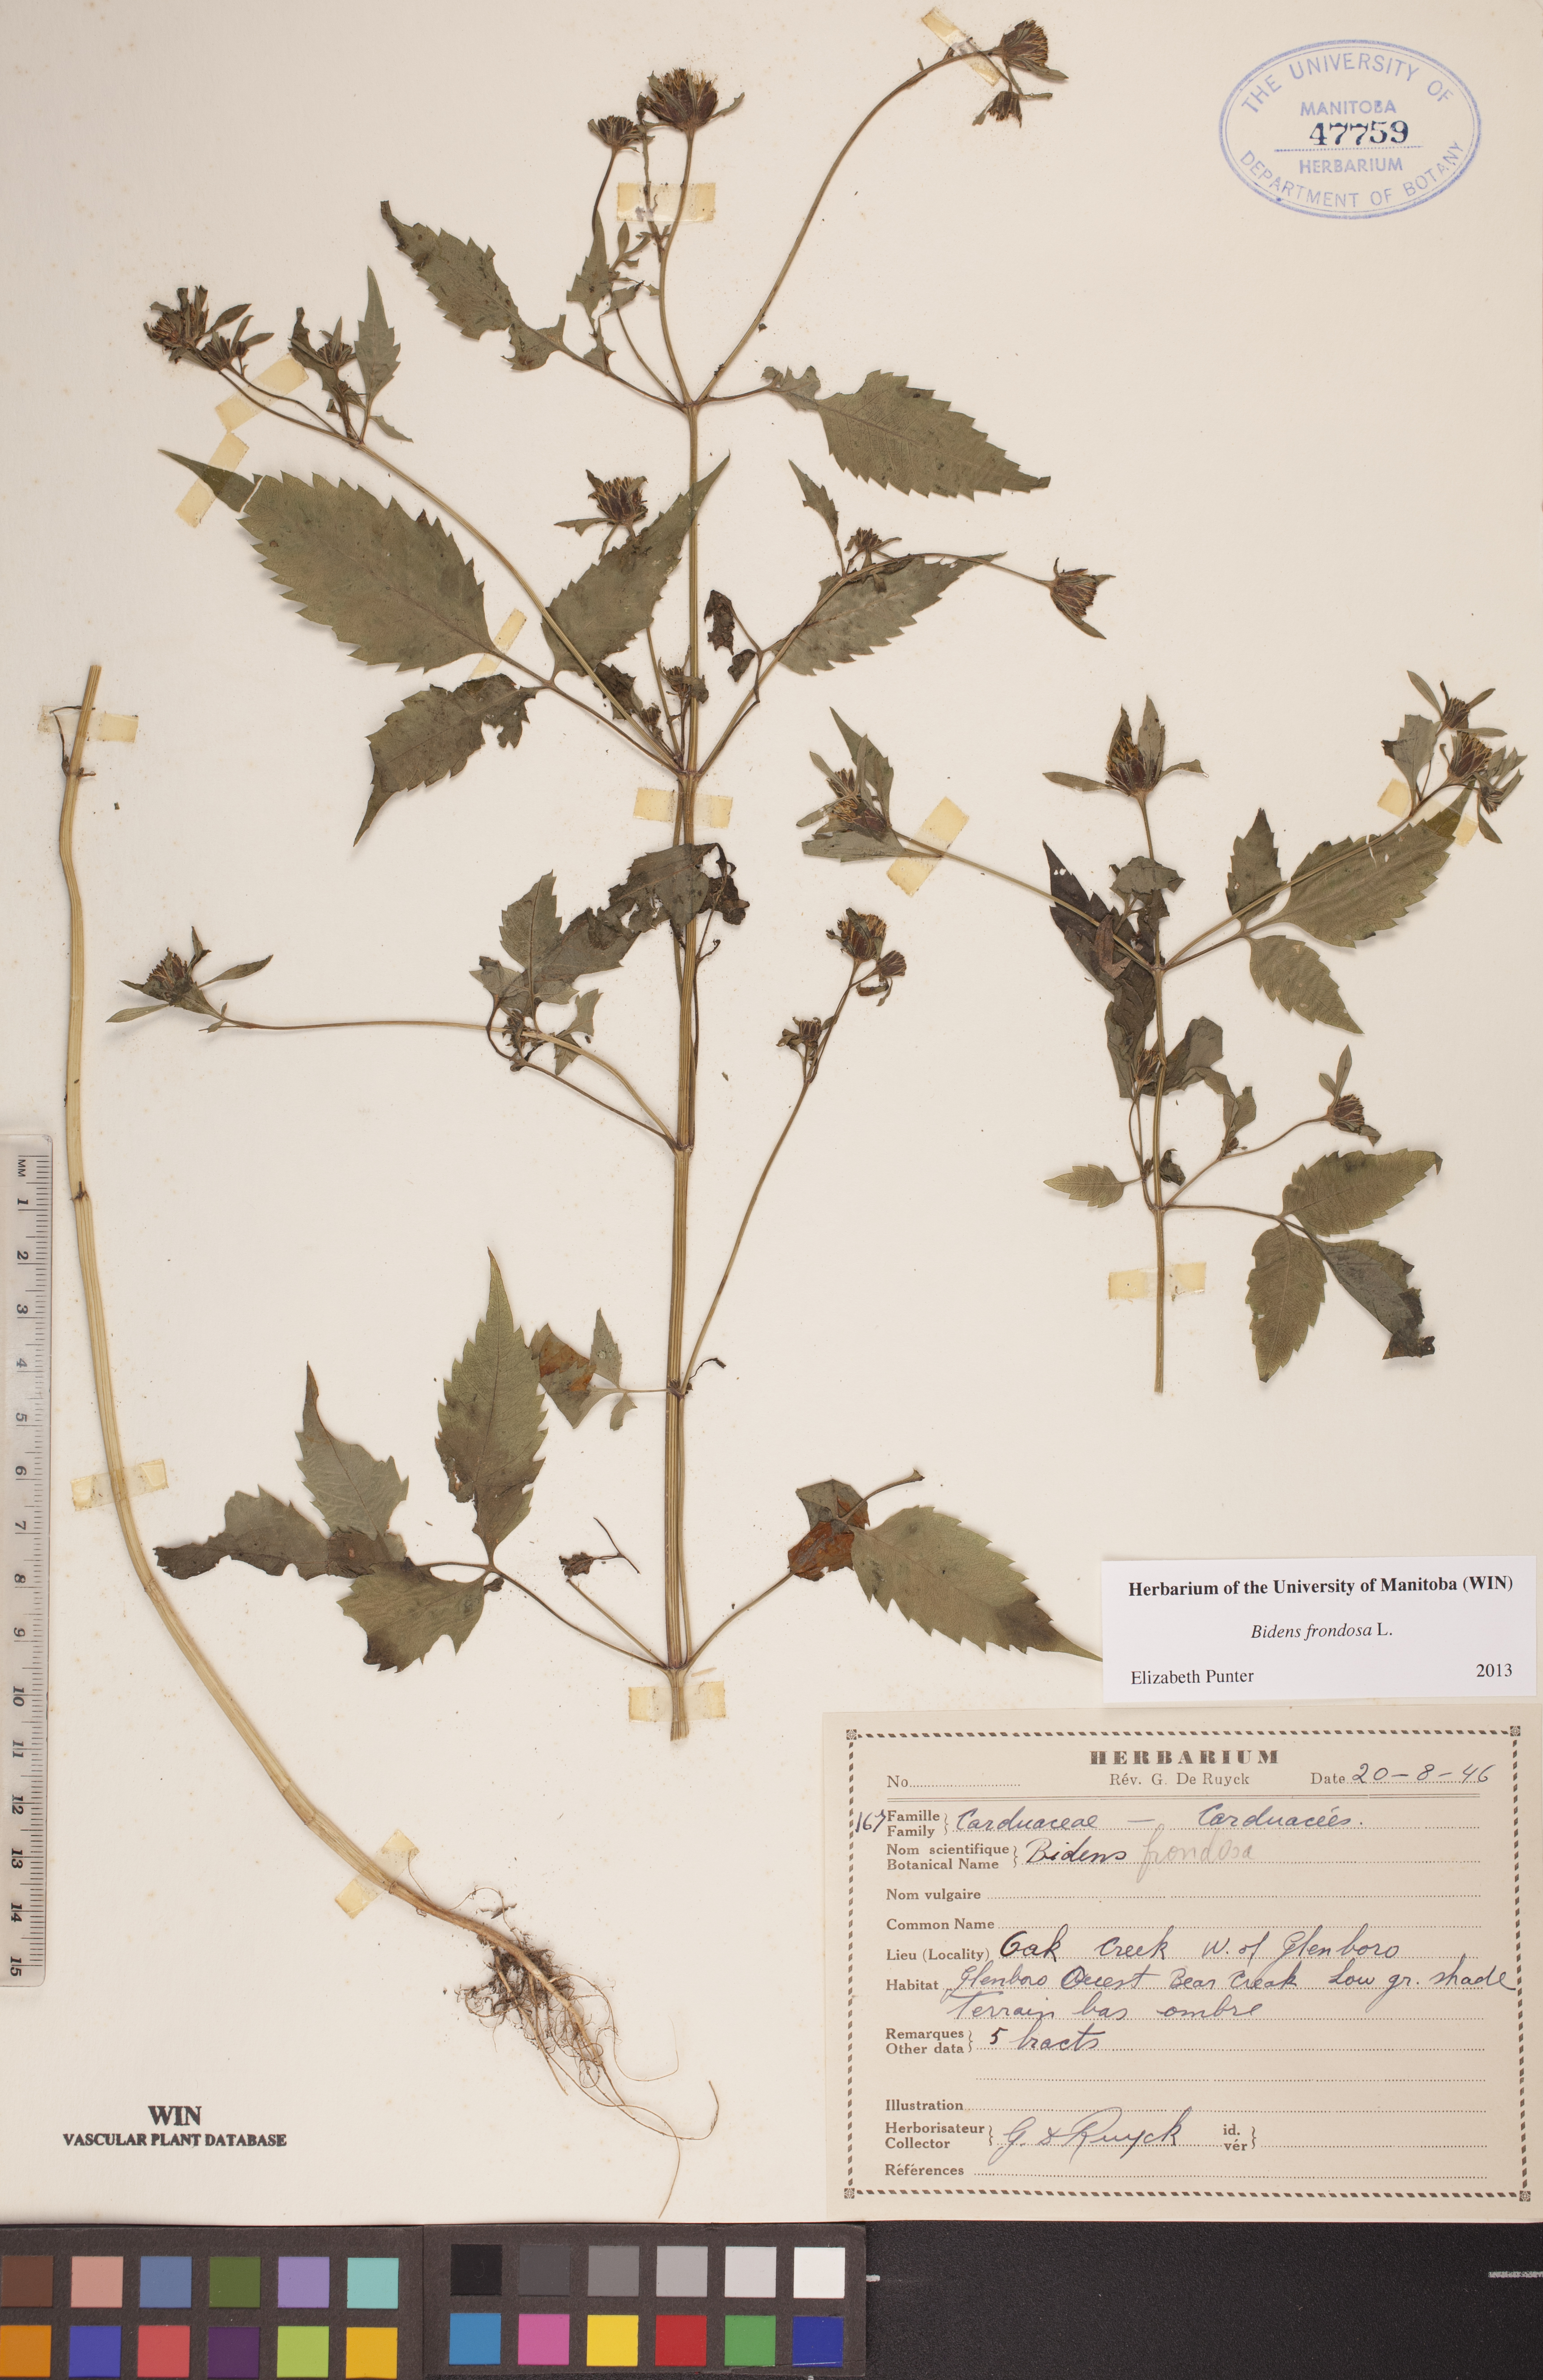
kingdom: Plantae
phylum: Tracheophyta
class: Magnoliopsida
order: Asterales
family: Asteraceae
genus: Bidens
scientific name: Bidens frondosa
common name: Beggarticks
